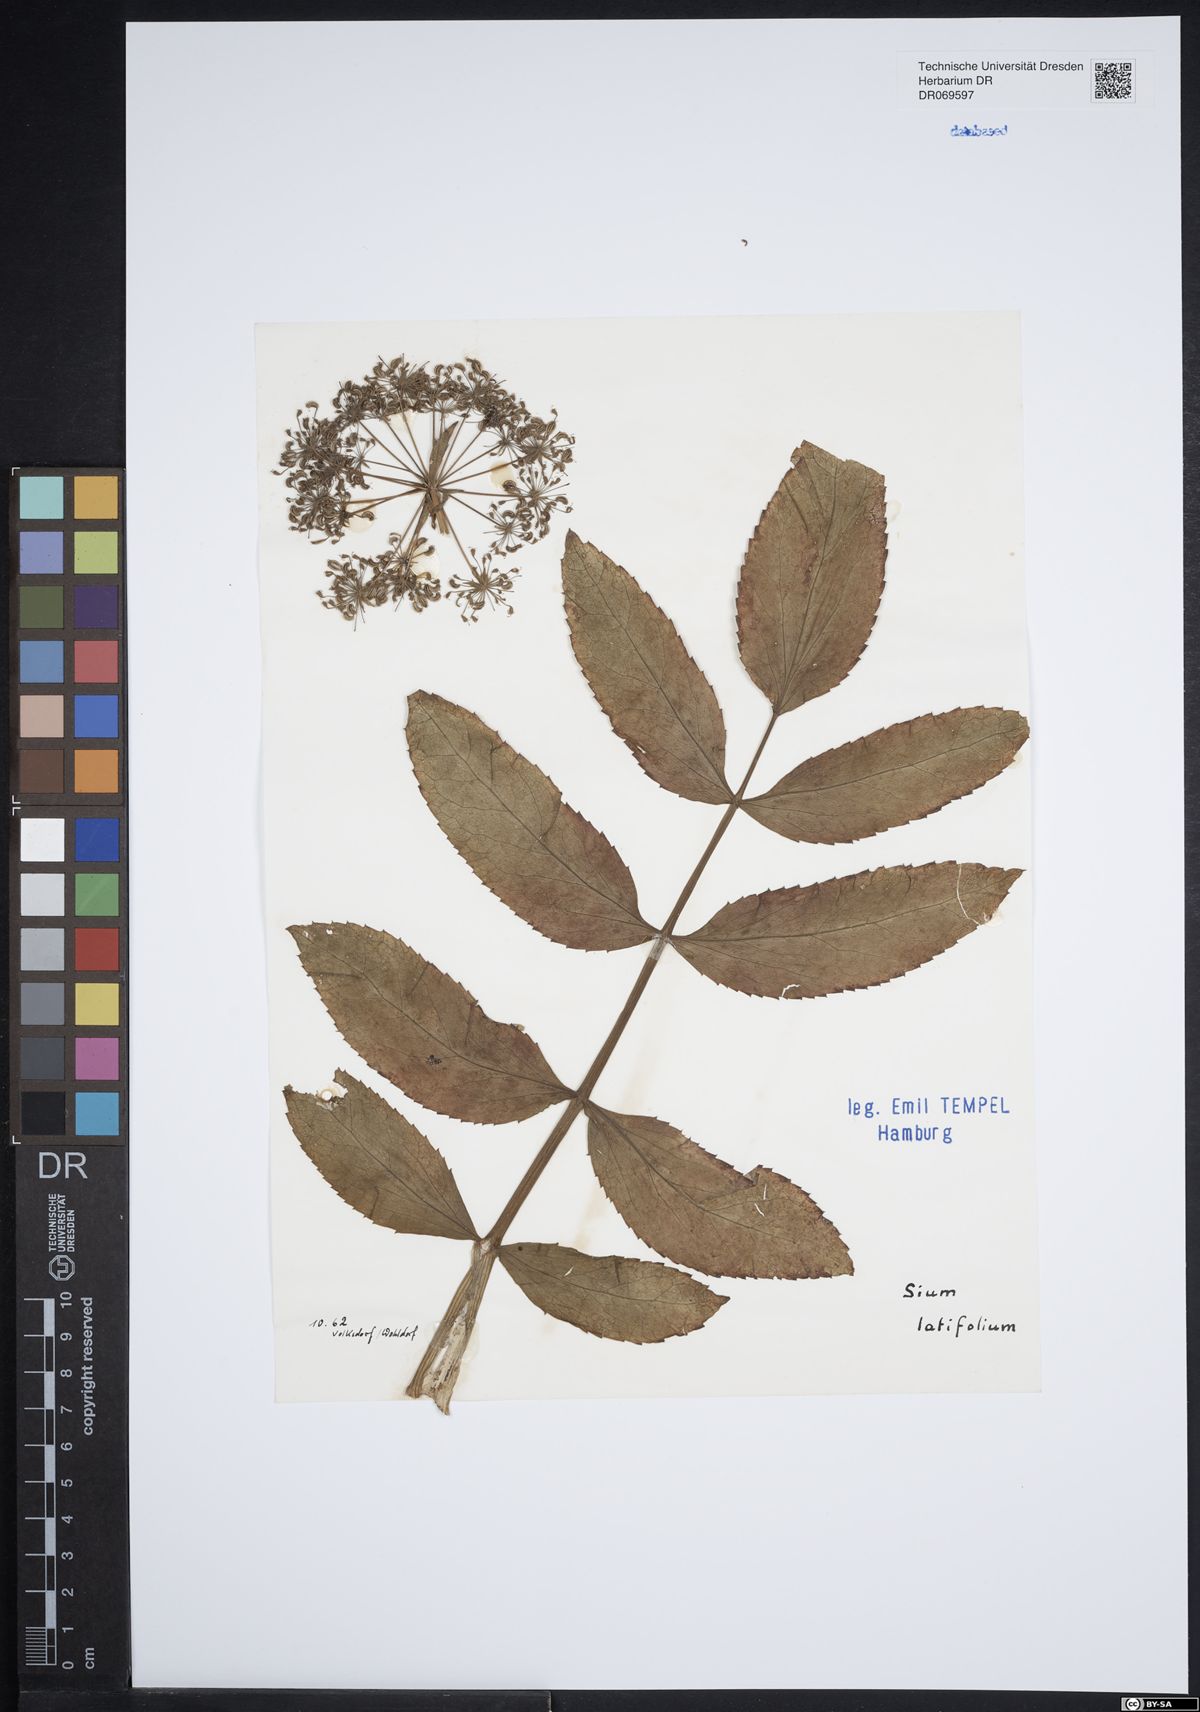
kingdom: Plantae
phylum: Tracheophyta
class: Magnoliopsida
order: Apiales
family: Apiaceae
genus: Sium
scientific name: Sium latifolium
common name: Greater water-parsnip
